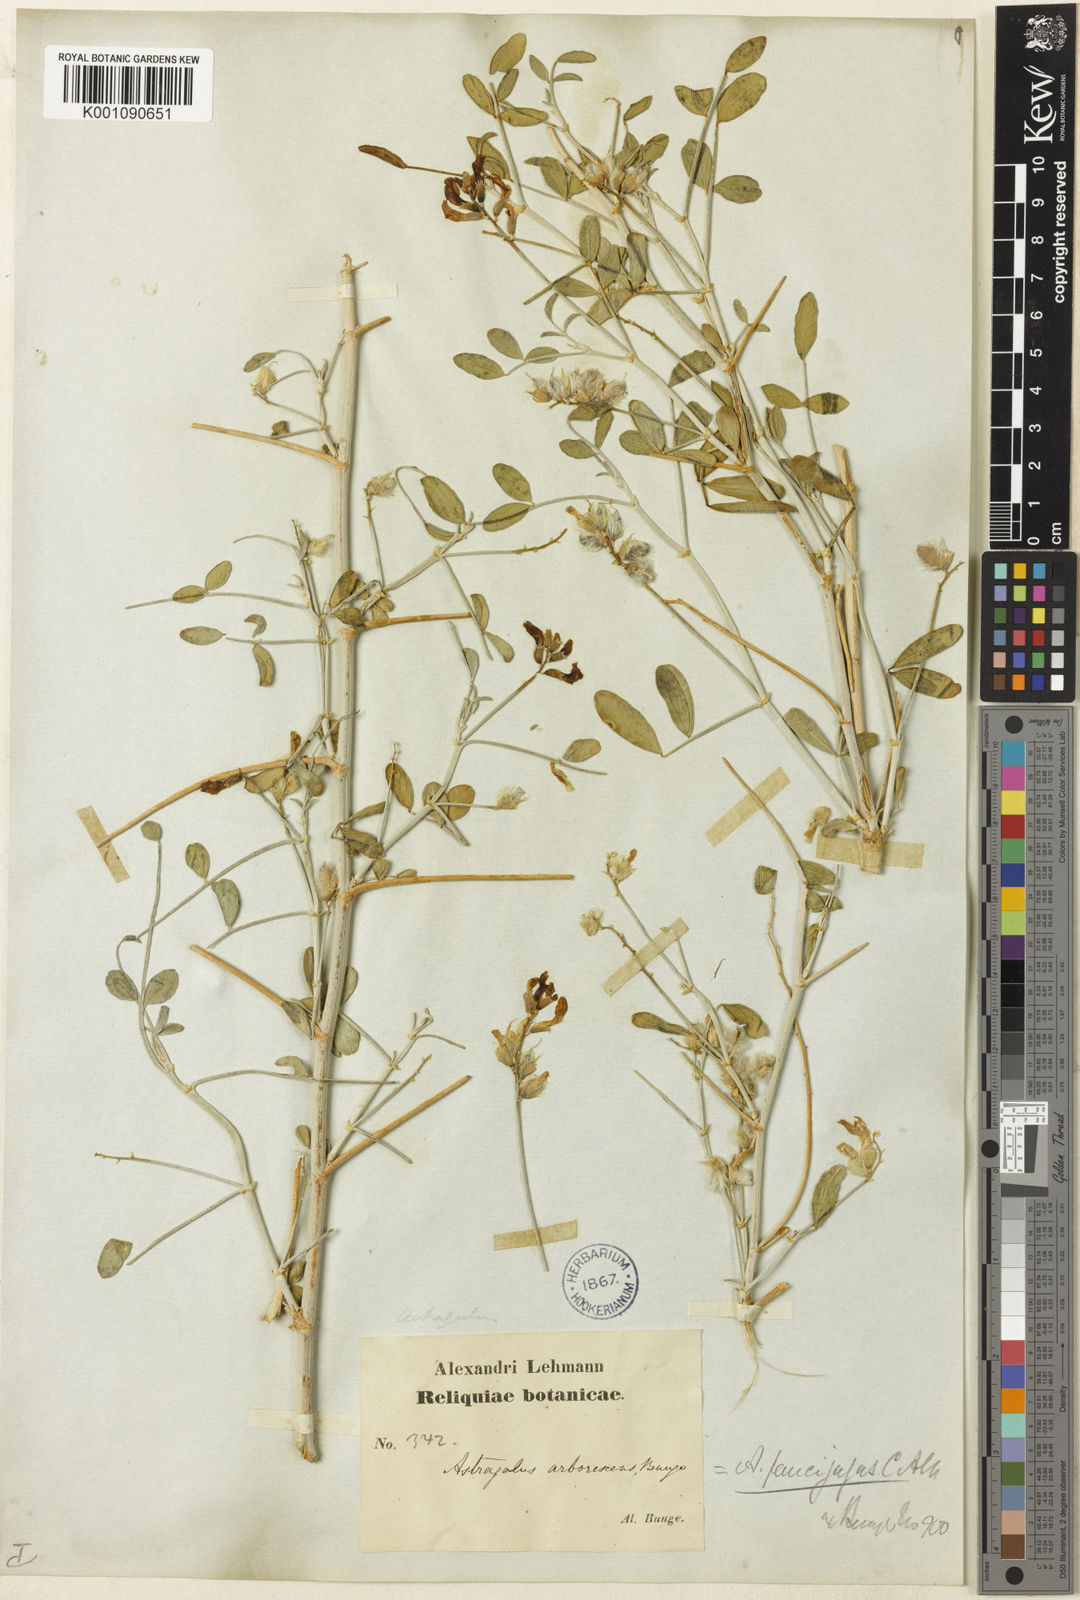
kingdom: Plantae
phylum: Tracheophyta
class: Magnoliopsida
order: Fabales
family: Fabaceae
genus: Astragalus
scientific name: Astragalus
